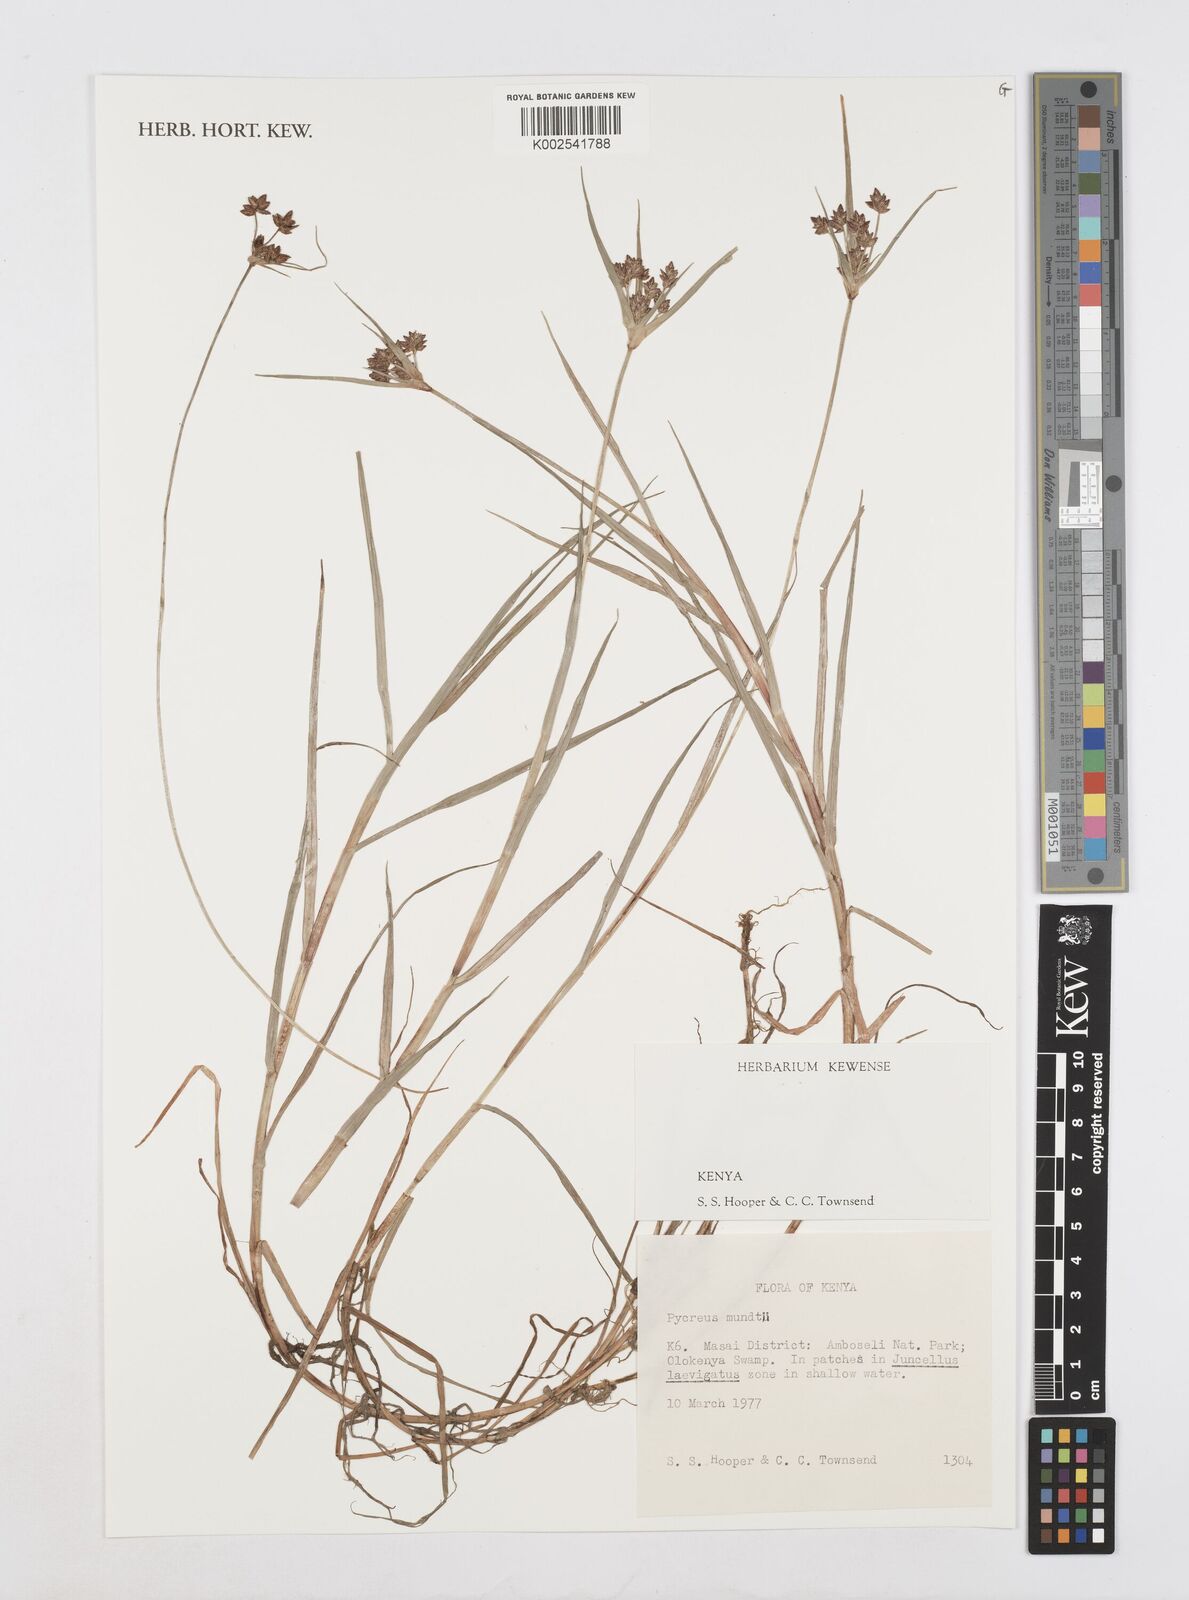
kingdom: Plantae
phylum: Tracheophyta
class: Liliopsida
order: Poales
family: Cyperaceae
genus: Cyperus
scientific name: Cyperus mundii
